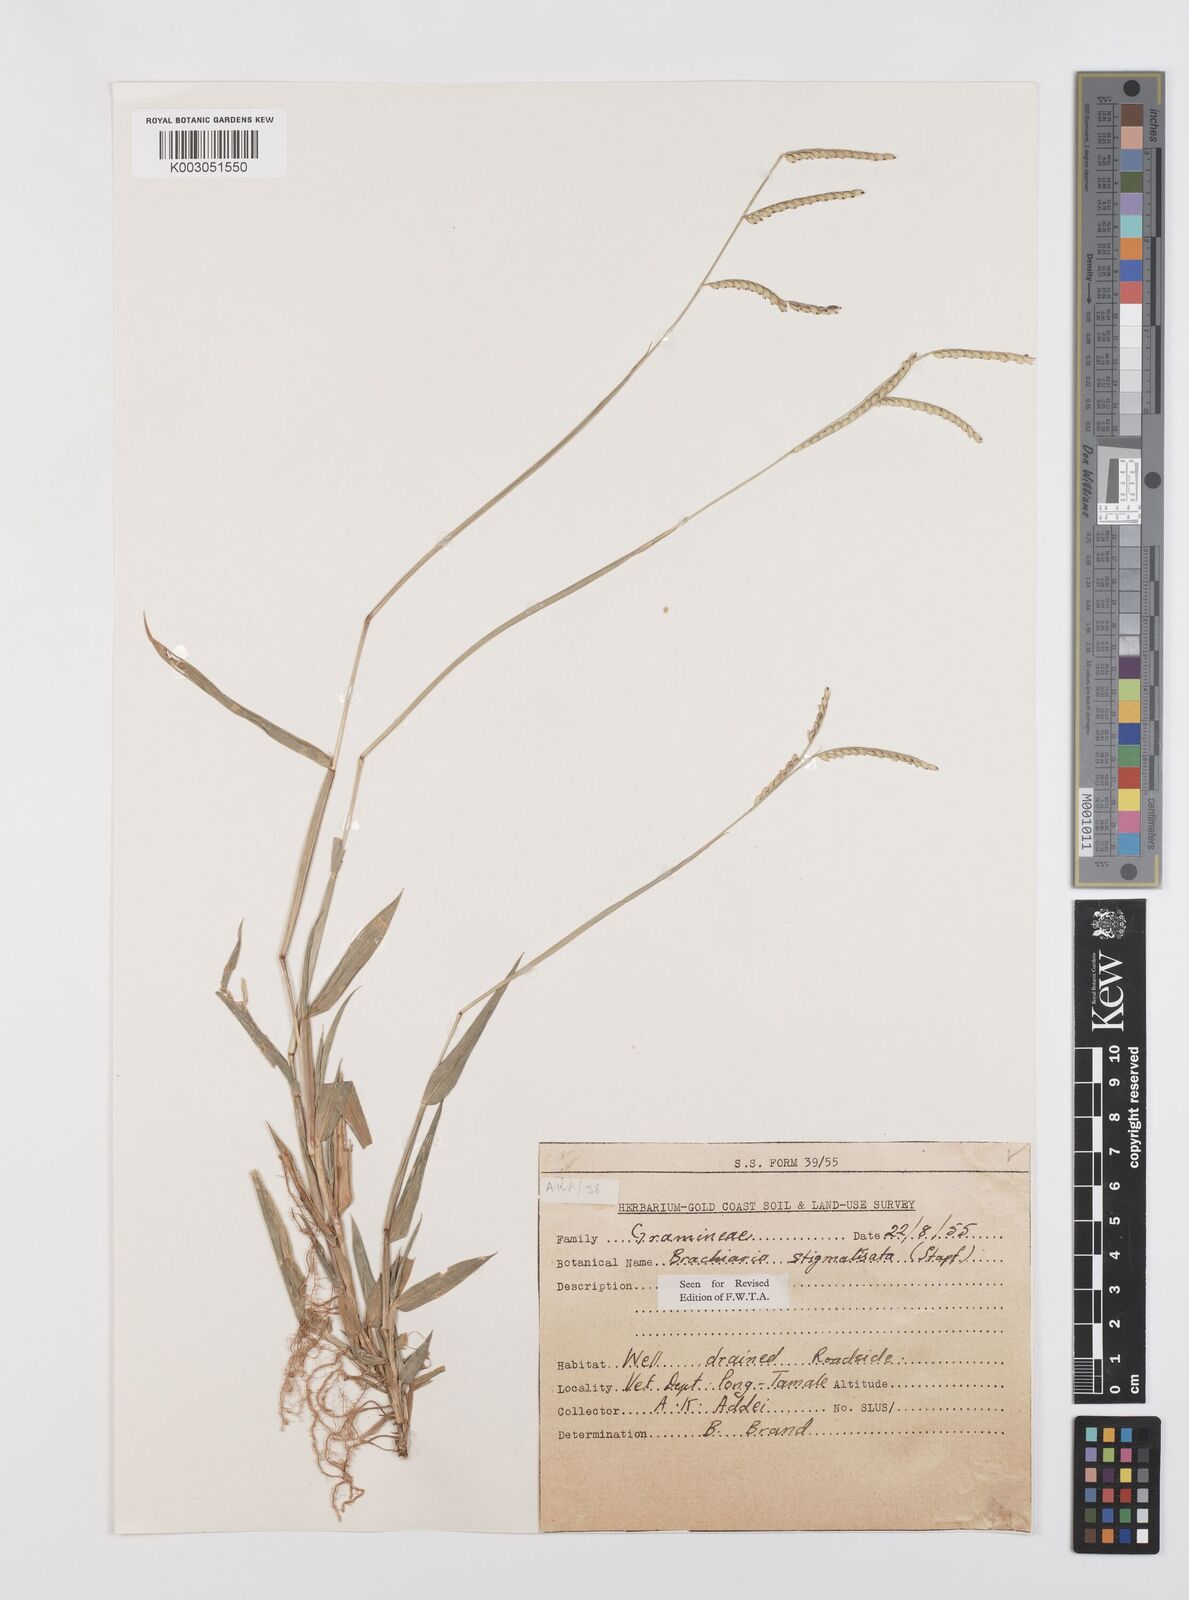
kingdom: Plantae
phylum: Tracheophyta
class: Liliopsida
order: Poales
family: Poaceae
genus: Urochloa
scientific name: Urochloa stigmatisata
